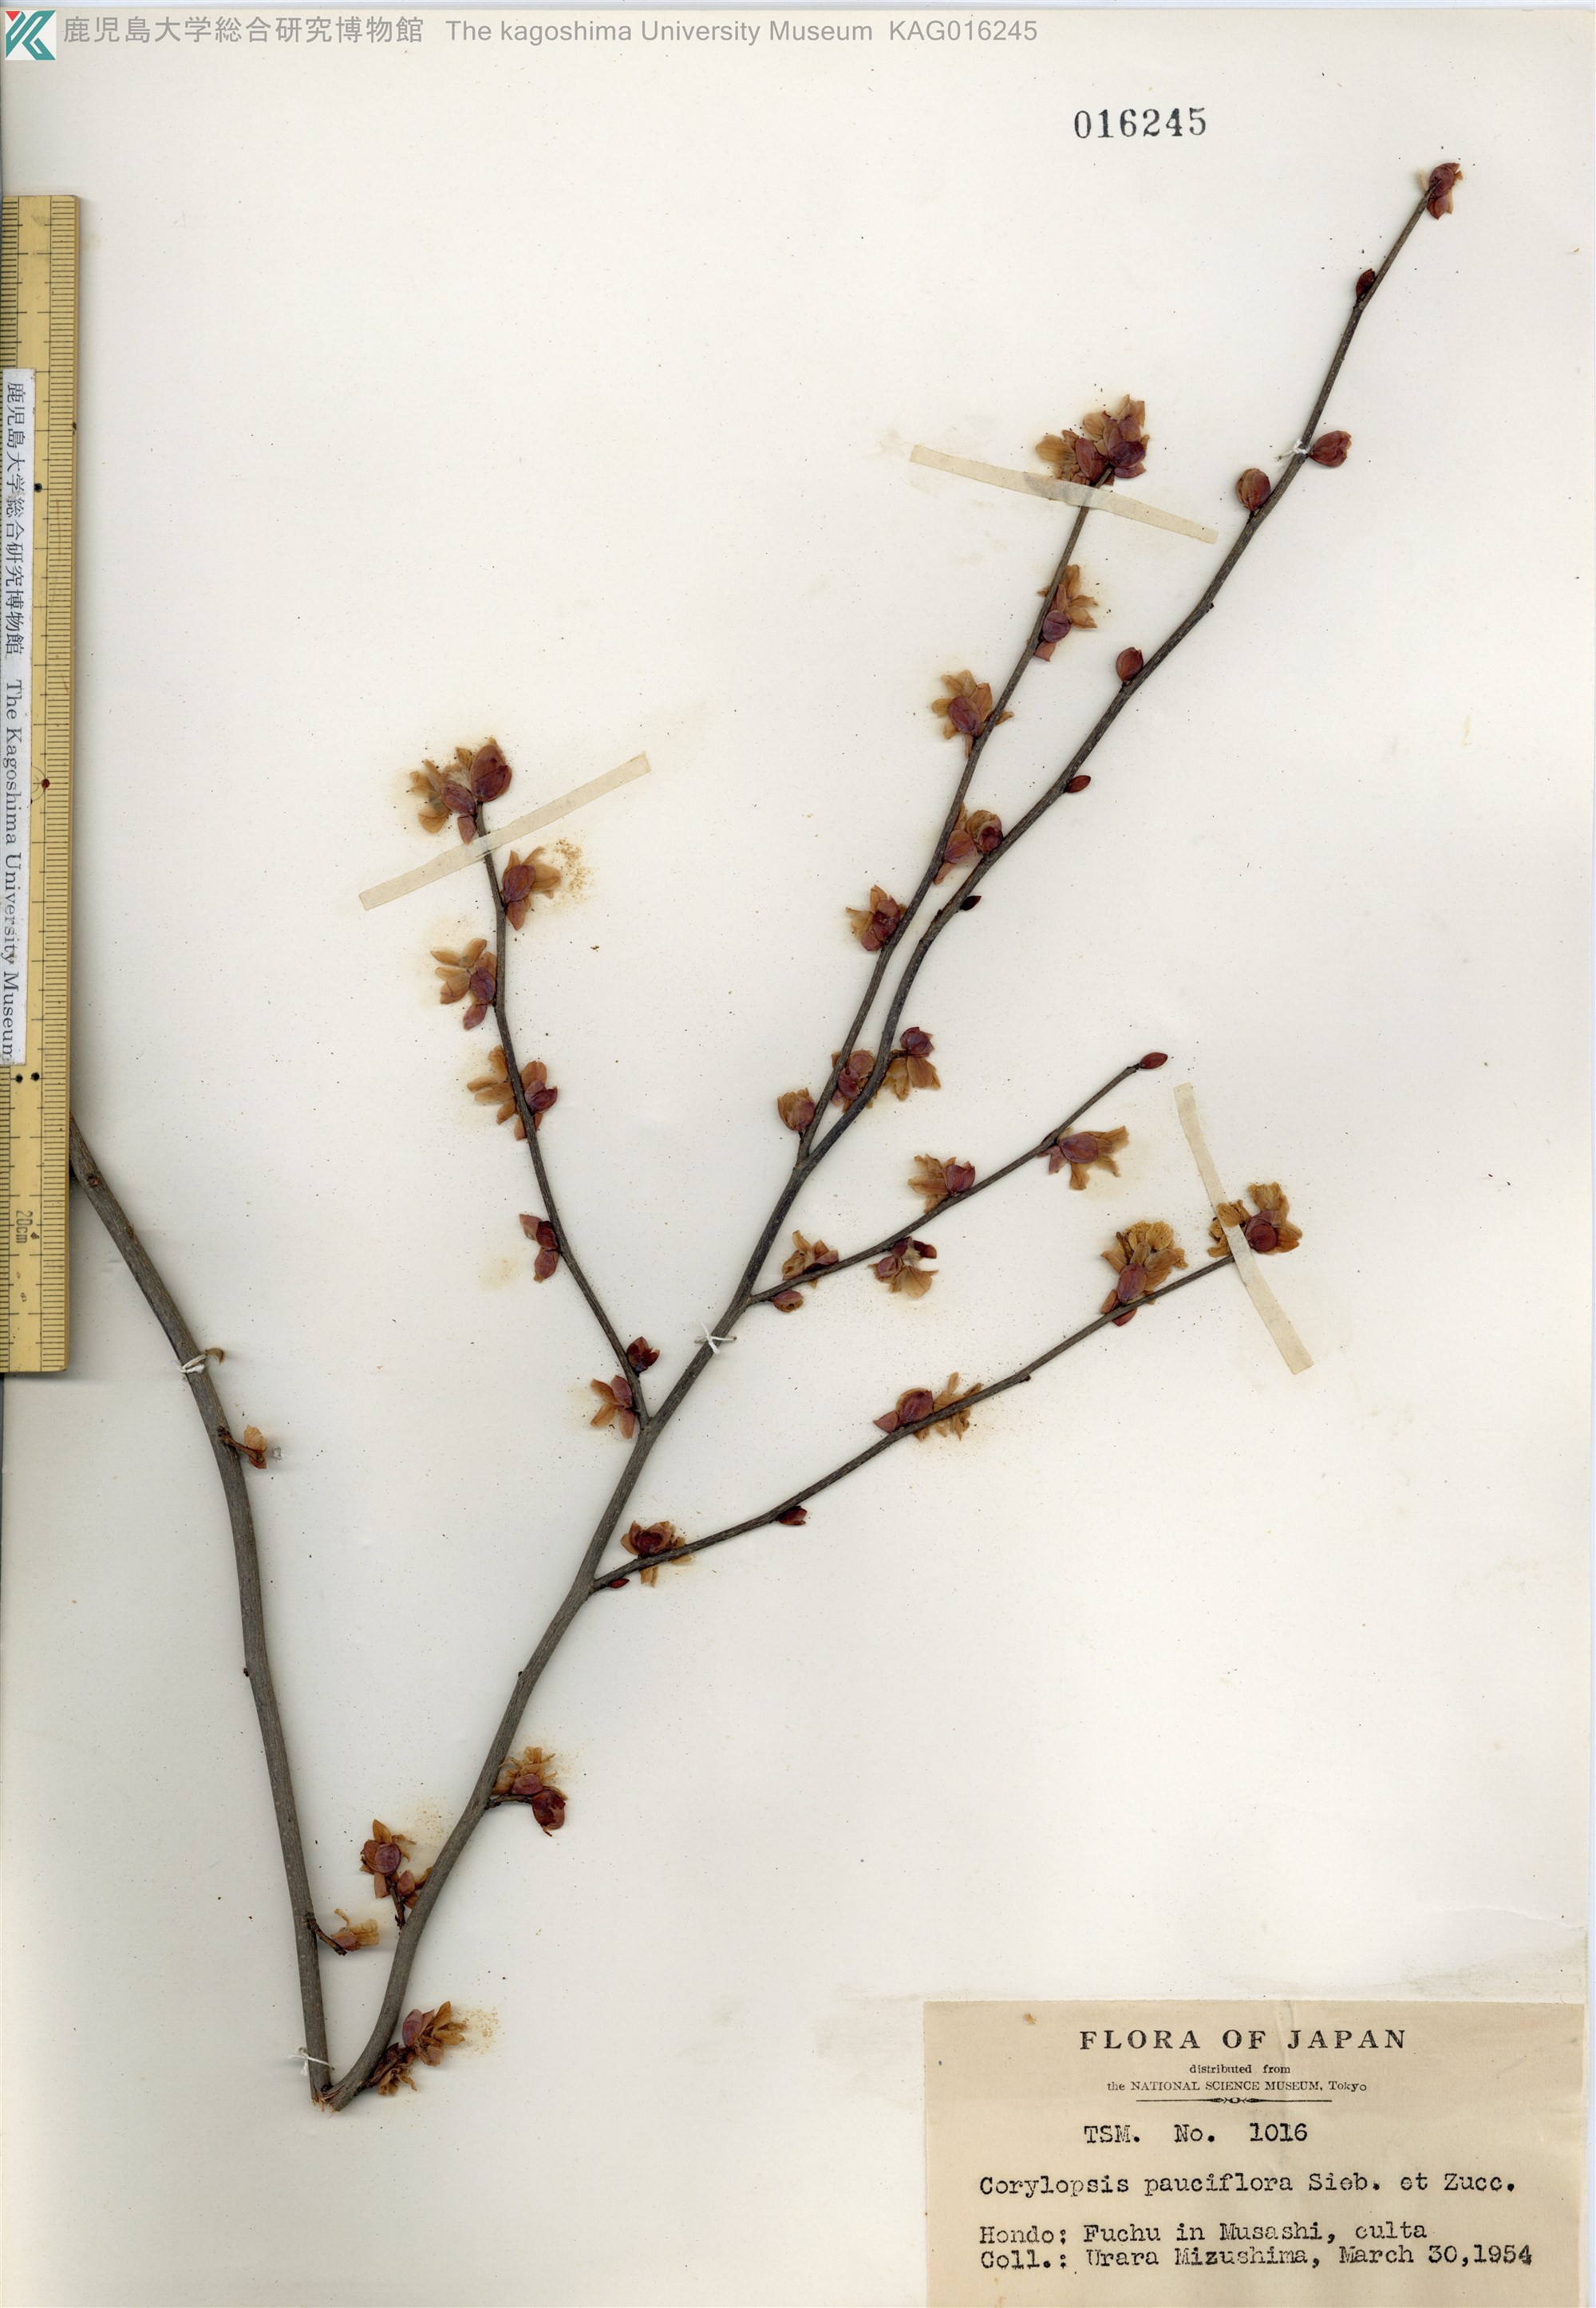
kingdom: Plantae
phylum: Tracheophyta
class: Magnoliopsida
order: Saxifragales
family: Hamamelidaceae
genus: Corylopsis
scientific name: Corylopsis pauciflora
